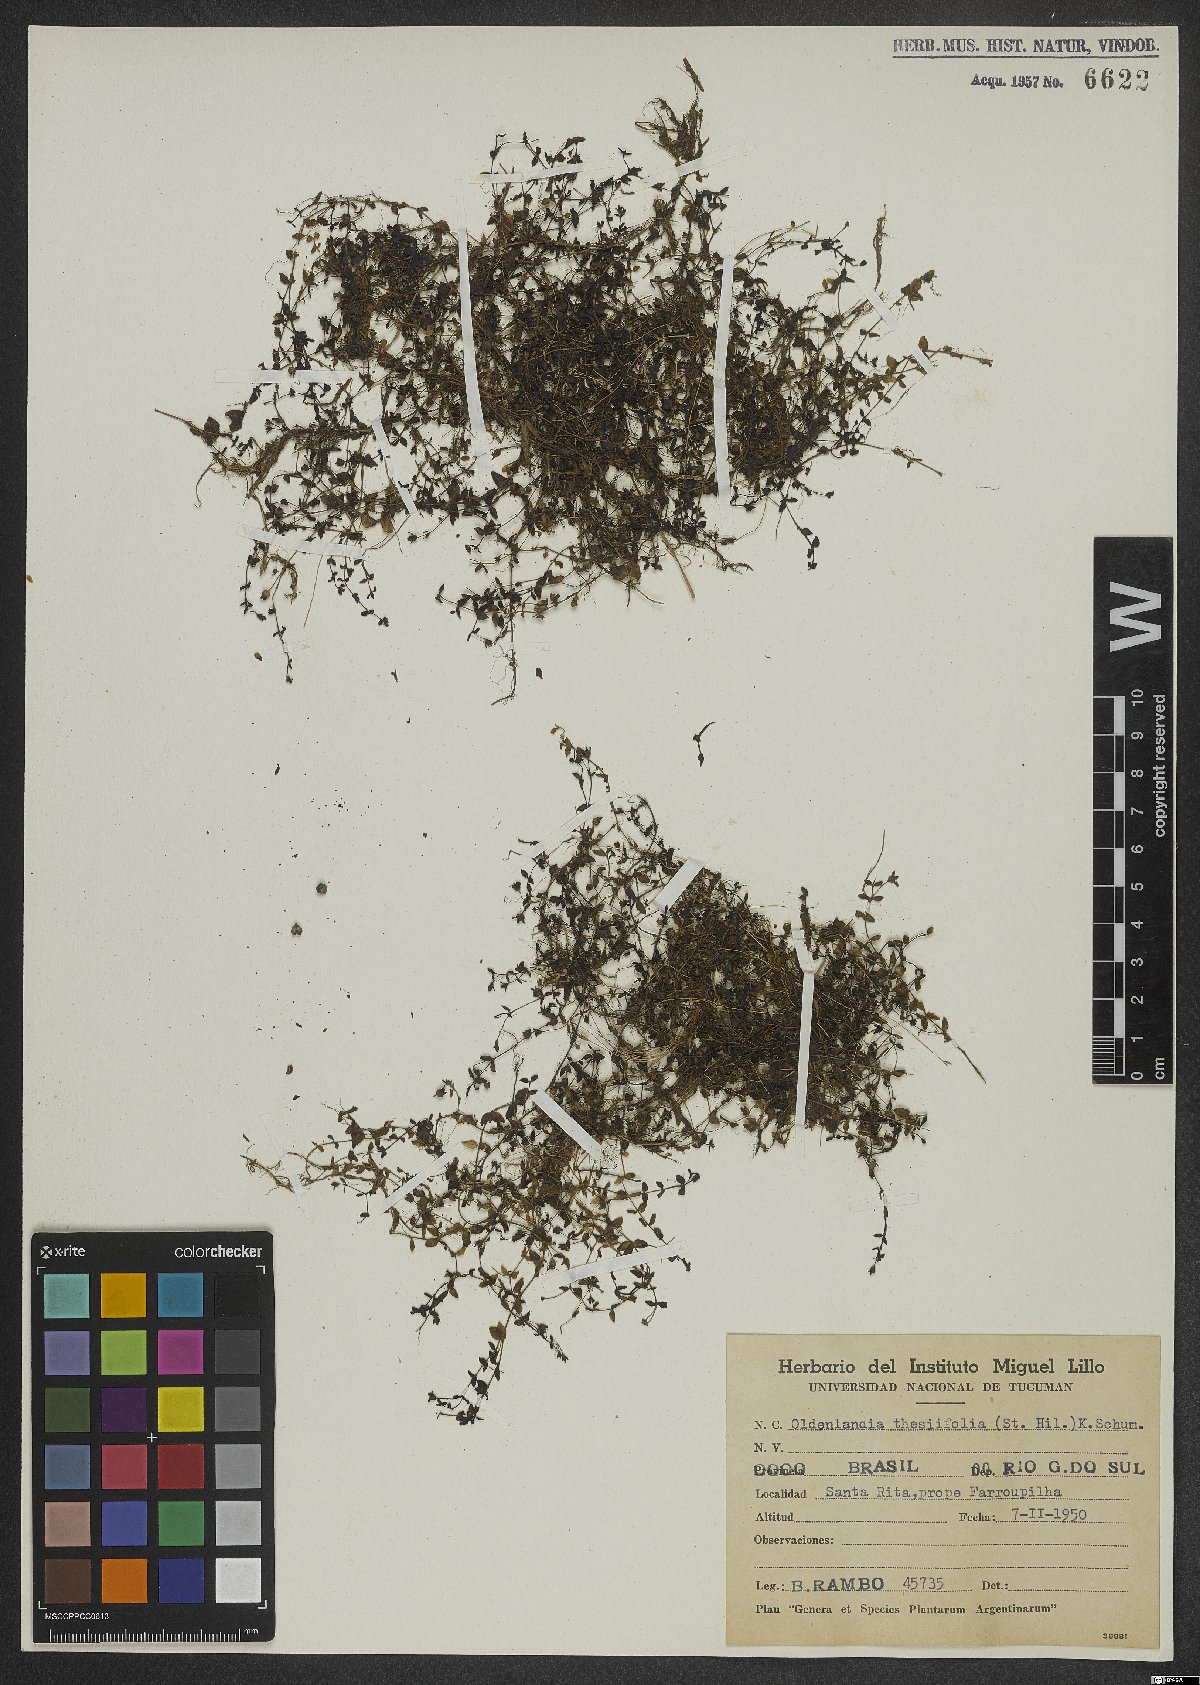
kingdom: Plantae
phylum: Tracheophyta
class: Magnoliopsida
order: Gentianales
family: Rubiaceae
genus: Oldenlandia
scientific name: Oldenlandia salzmannii
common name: Salzmann's mille graines
